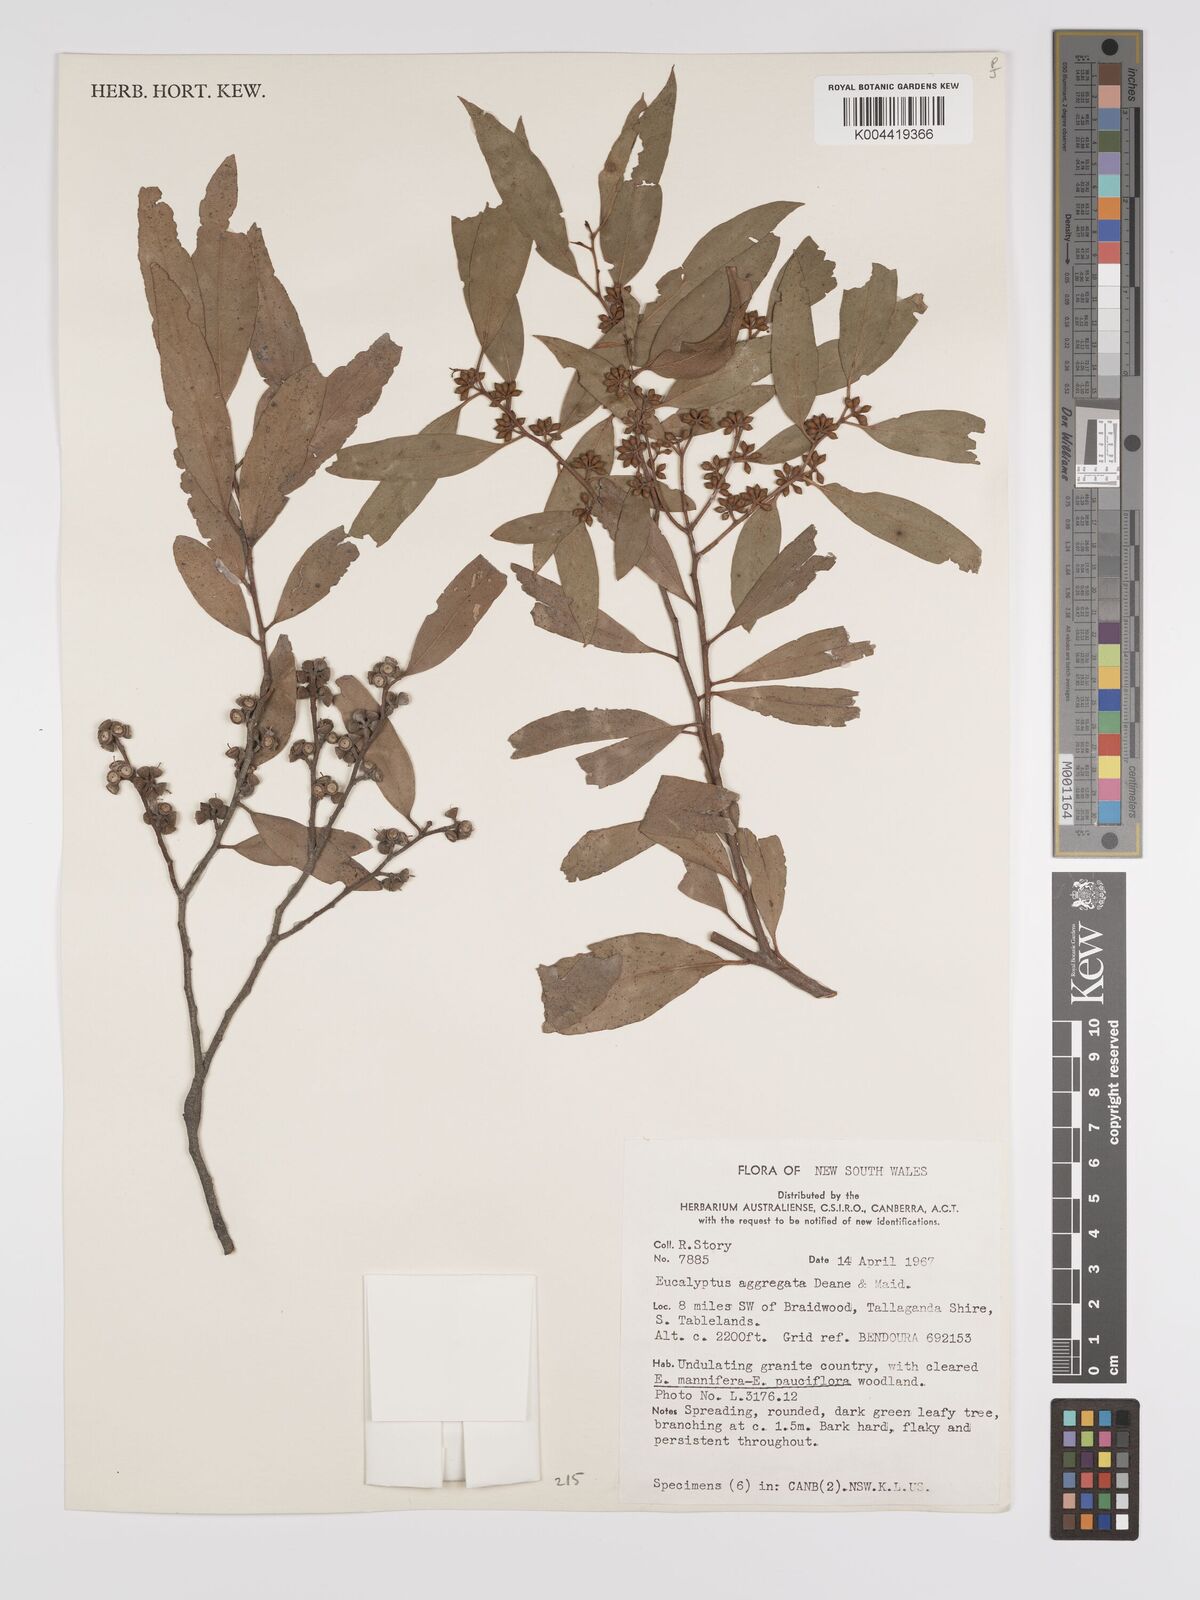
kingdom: Plantae
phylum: Tracheophyta
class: Magnoliopsida
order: Myrtales
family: Myrtaceae
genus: Eucalyptus
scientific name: Eucalyptus aggregata
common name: Black gum
